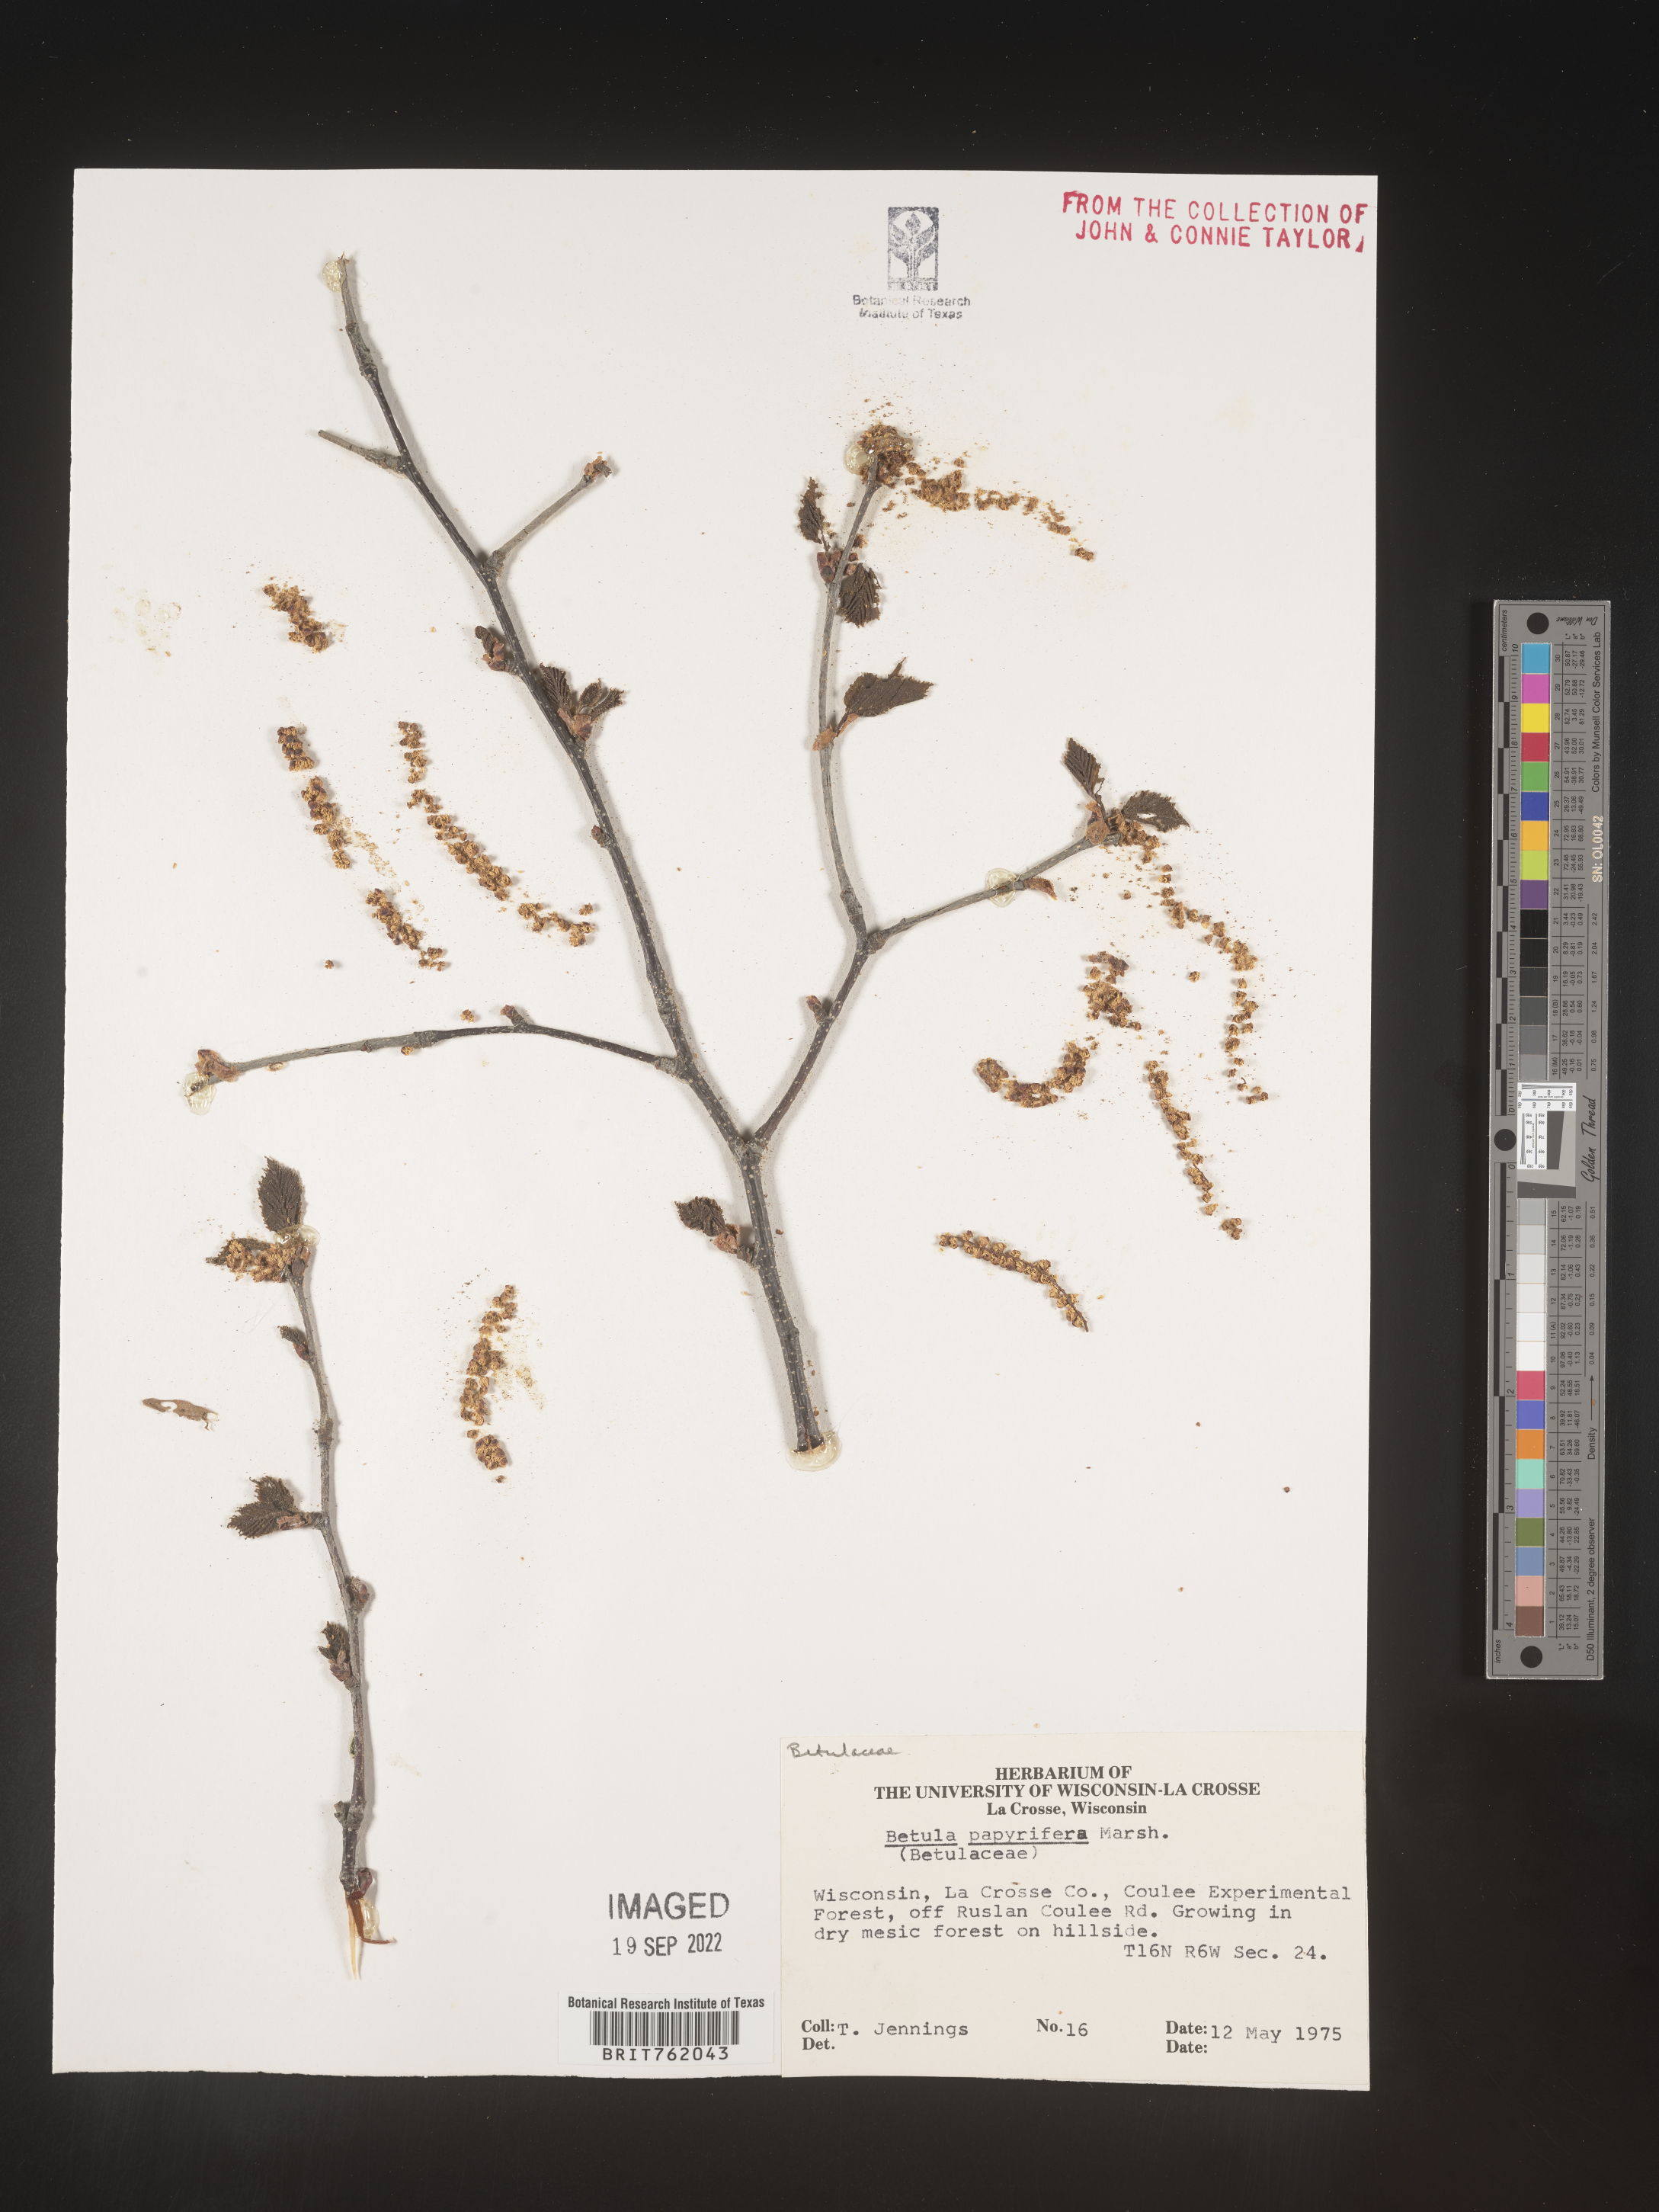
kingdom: Plantae
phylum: Tracheophyta
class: Magnoliopsida
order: Fagales
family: Betulaceae
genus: Betula
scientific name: Betula papyrifera
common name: Paper birch
